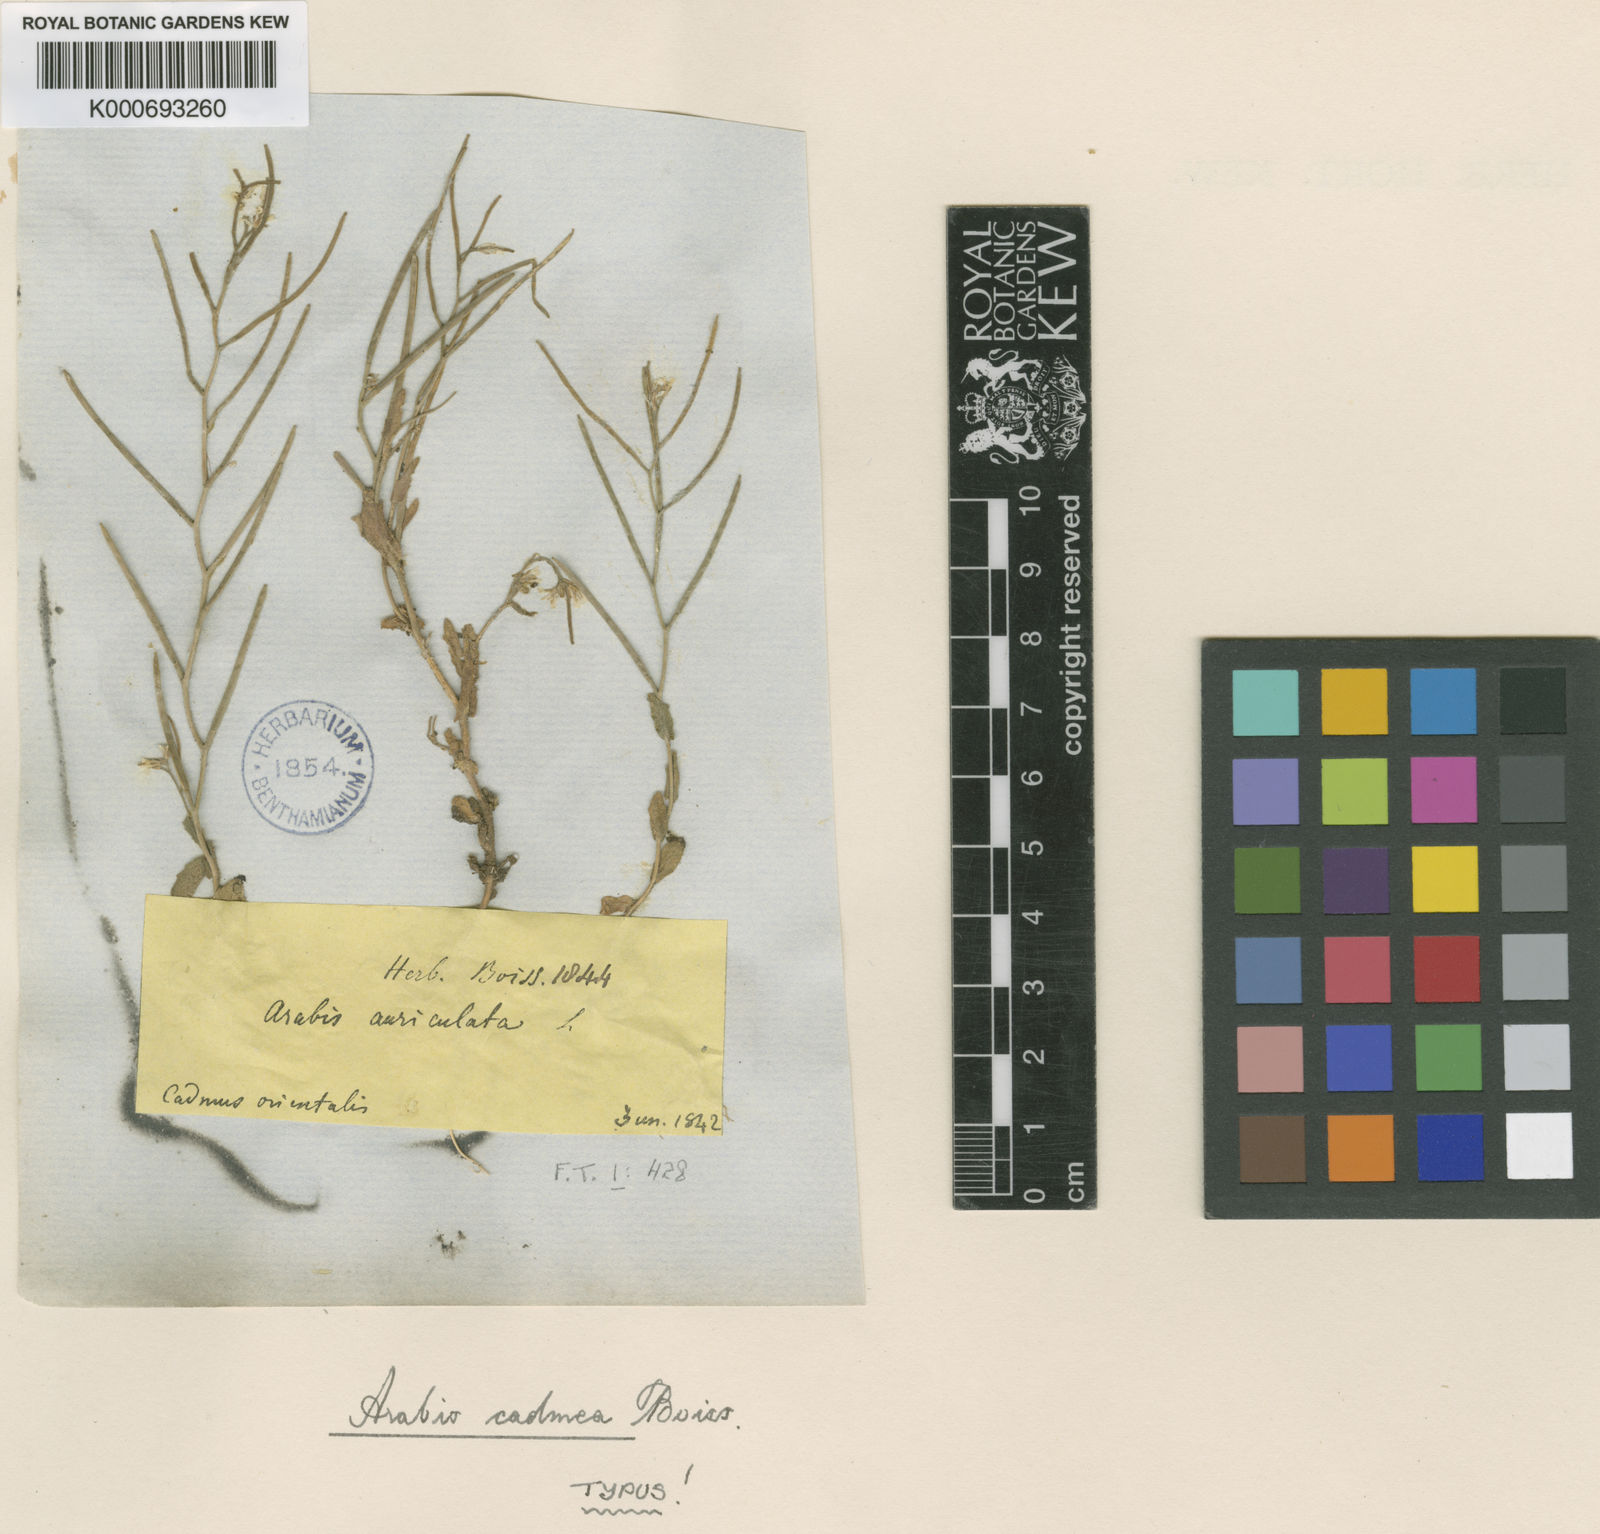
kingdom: Plantae
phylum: Tracheophyta
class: Magnoliopsida
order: Brassicales
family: Brassicaceae
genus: Arabis
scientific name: Arabis nova
